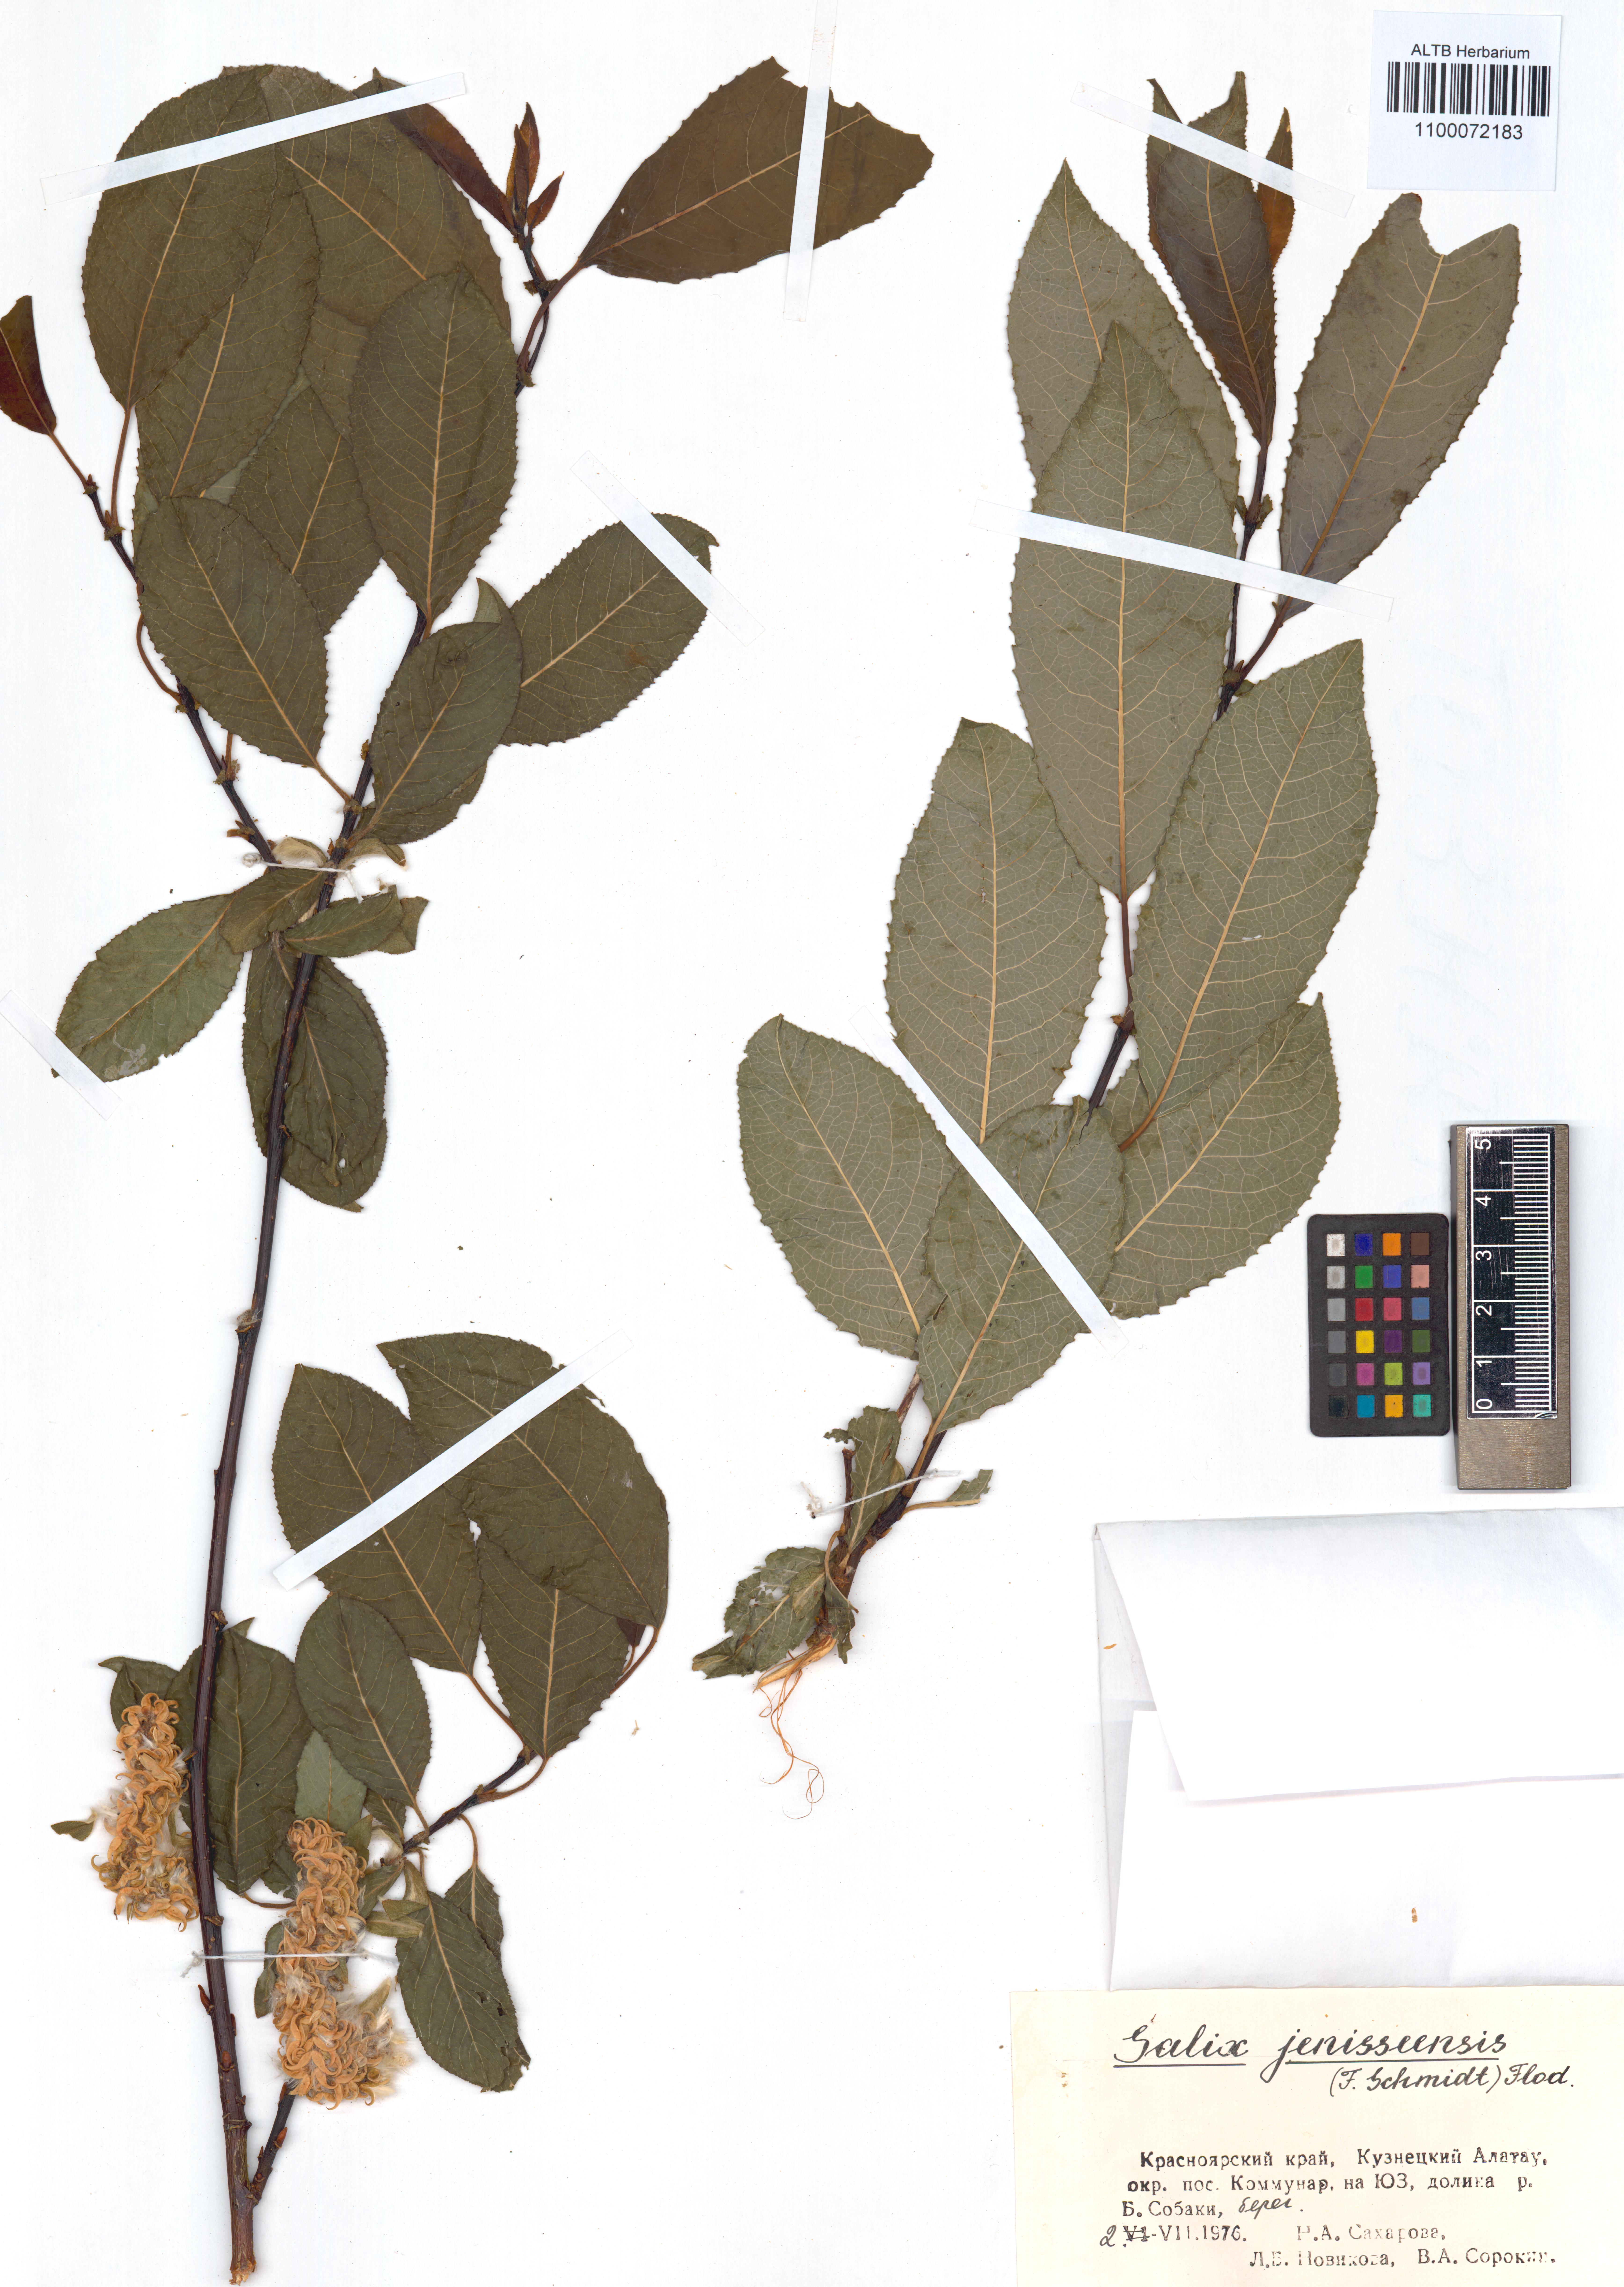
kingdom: Plantae
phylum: Tracheophyta
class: Magnoliopsida
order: Malpighiales
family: Salicaceae
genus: Salix
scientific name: Salix jenisseensis
